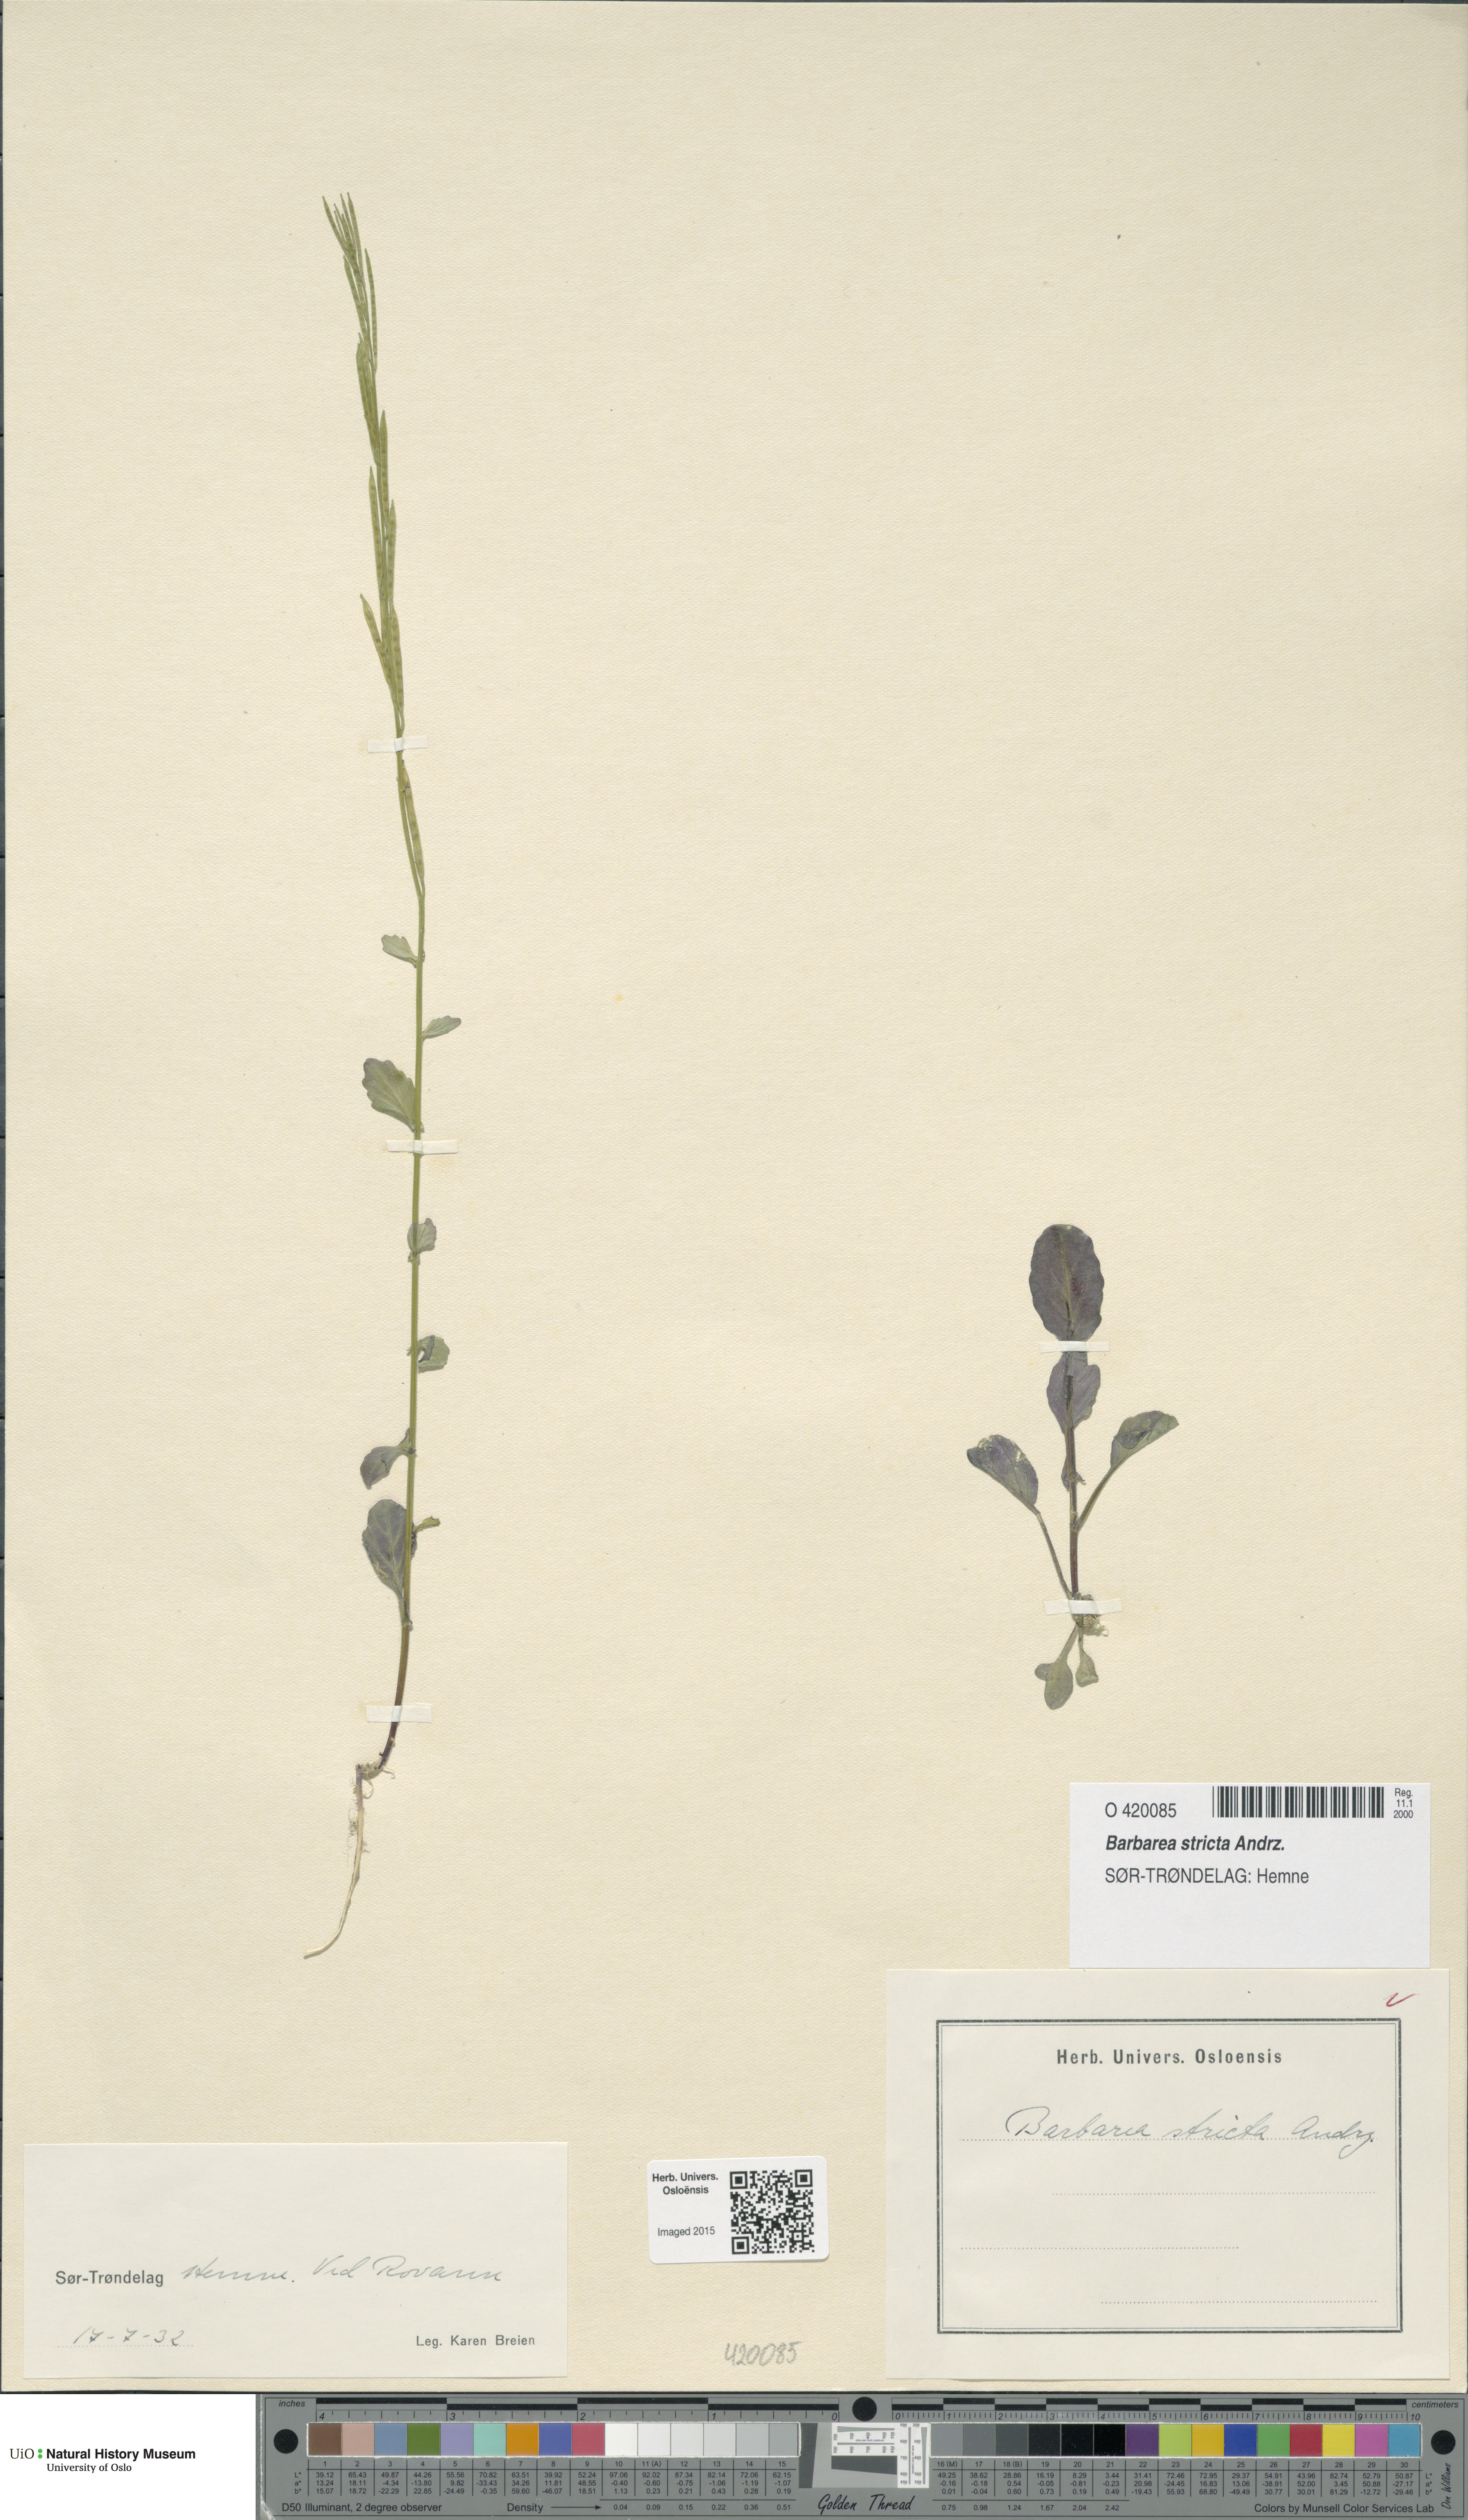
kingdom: Plantae
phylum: Tracheophyta
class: Magnoliopsida
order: Brassicales
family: Brassicaceae
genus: Barbarea
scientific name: Barbarea stricta
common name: Small-flowered winter-cress
